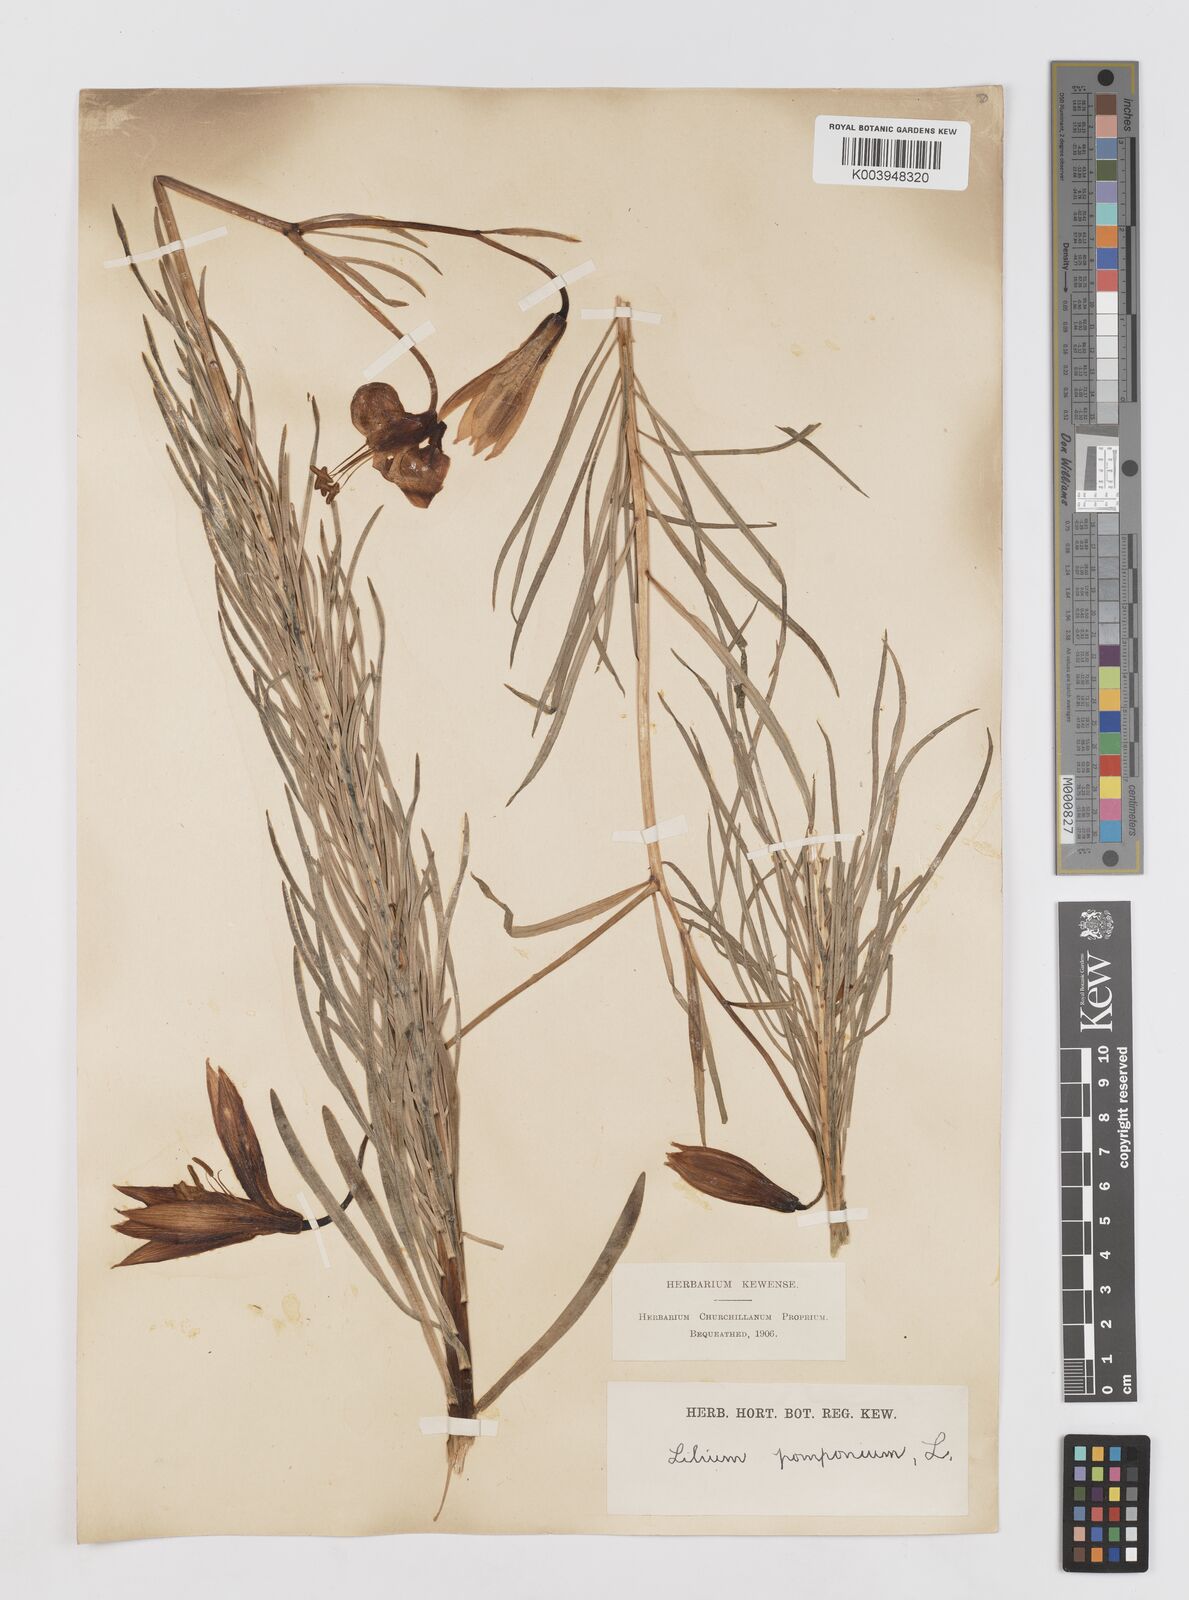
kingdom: Plantae
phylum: Tracheophyta
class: Liliopsida
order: Liliales
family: Liliaceae
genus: Lilium
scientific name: Lilium pomponium
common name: Minor turk's-cap lily
